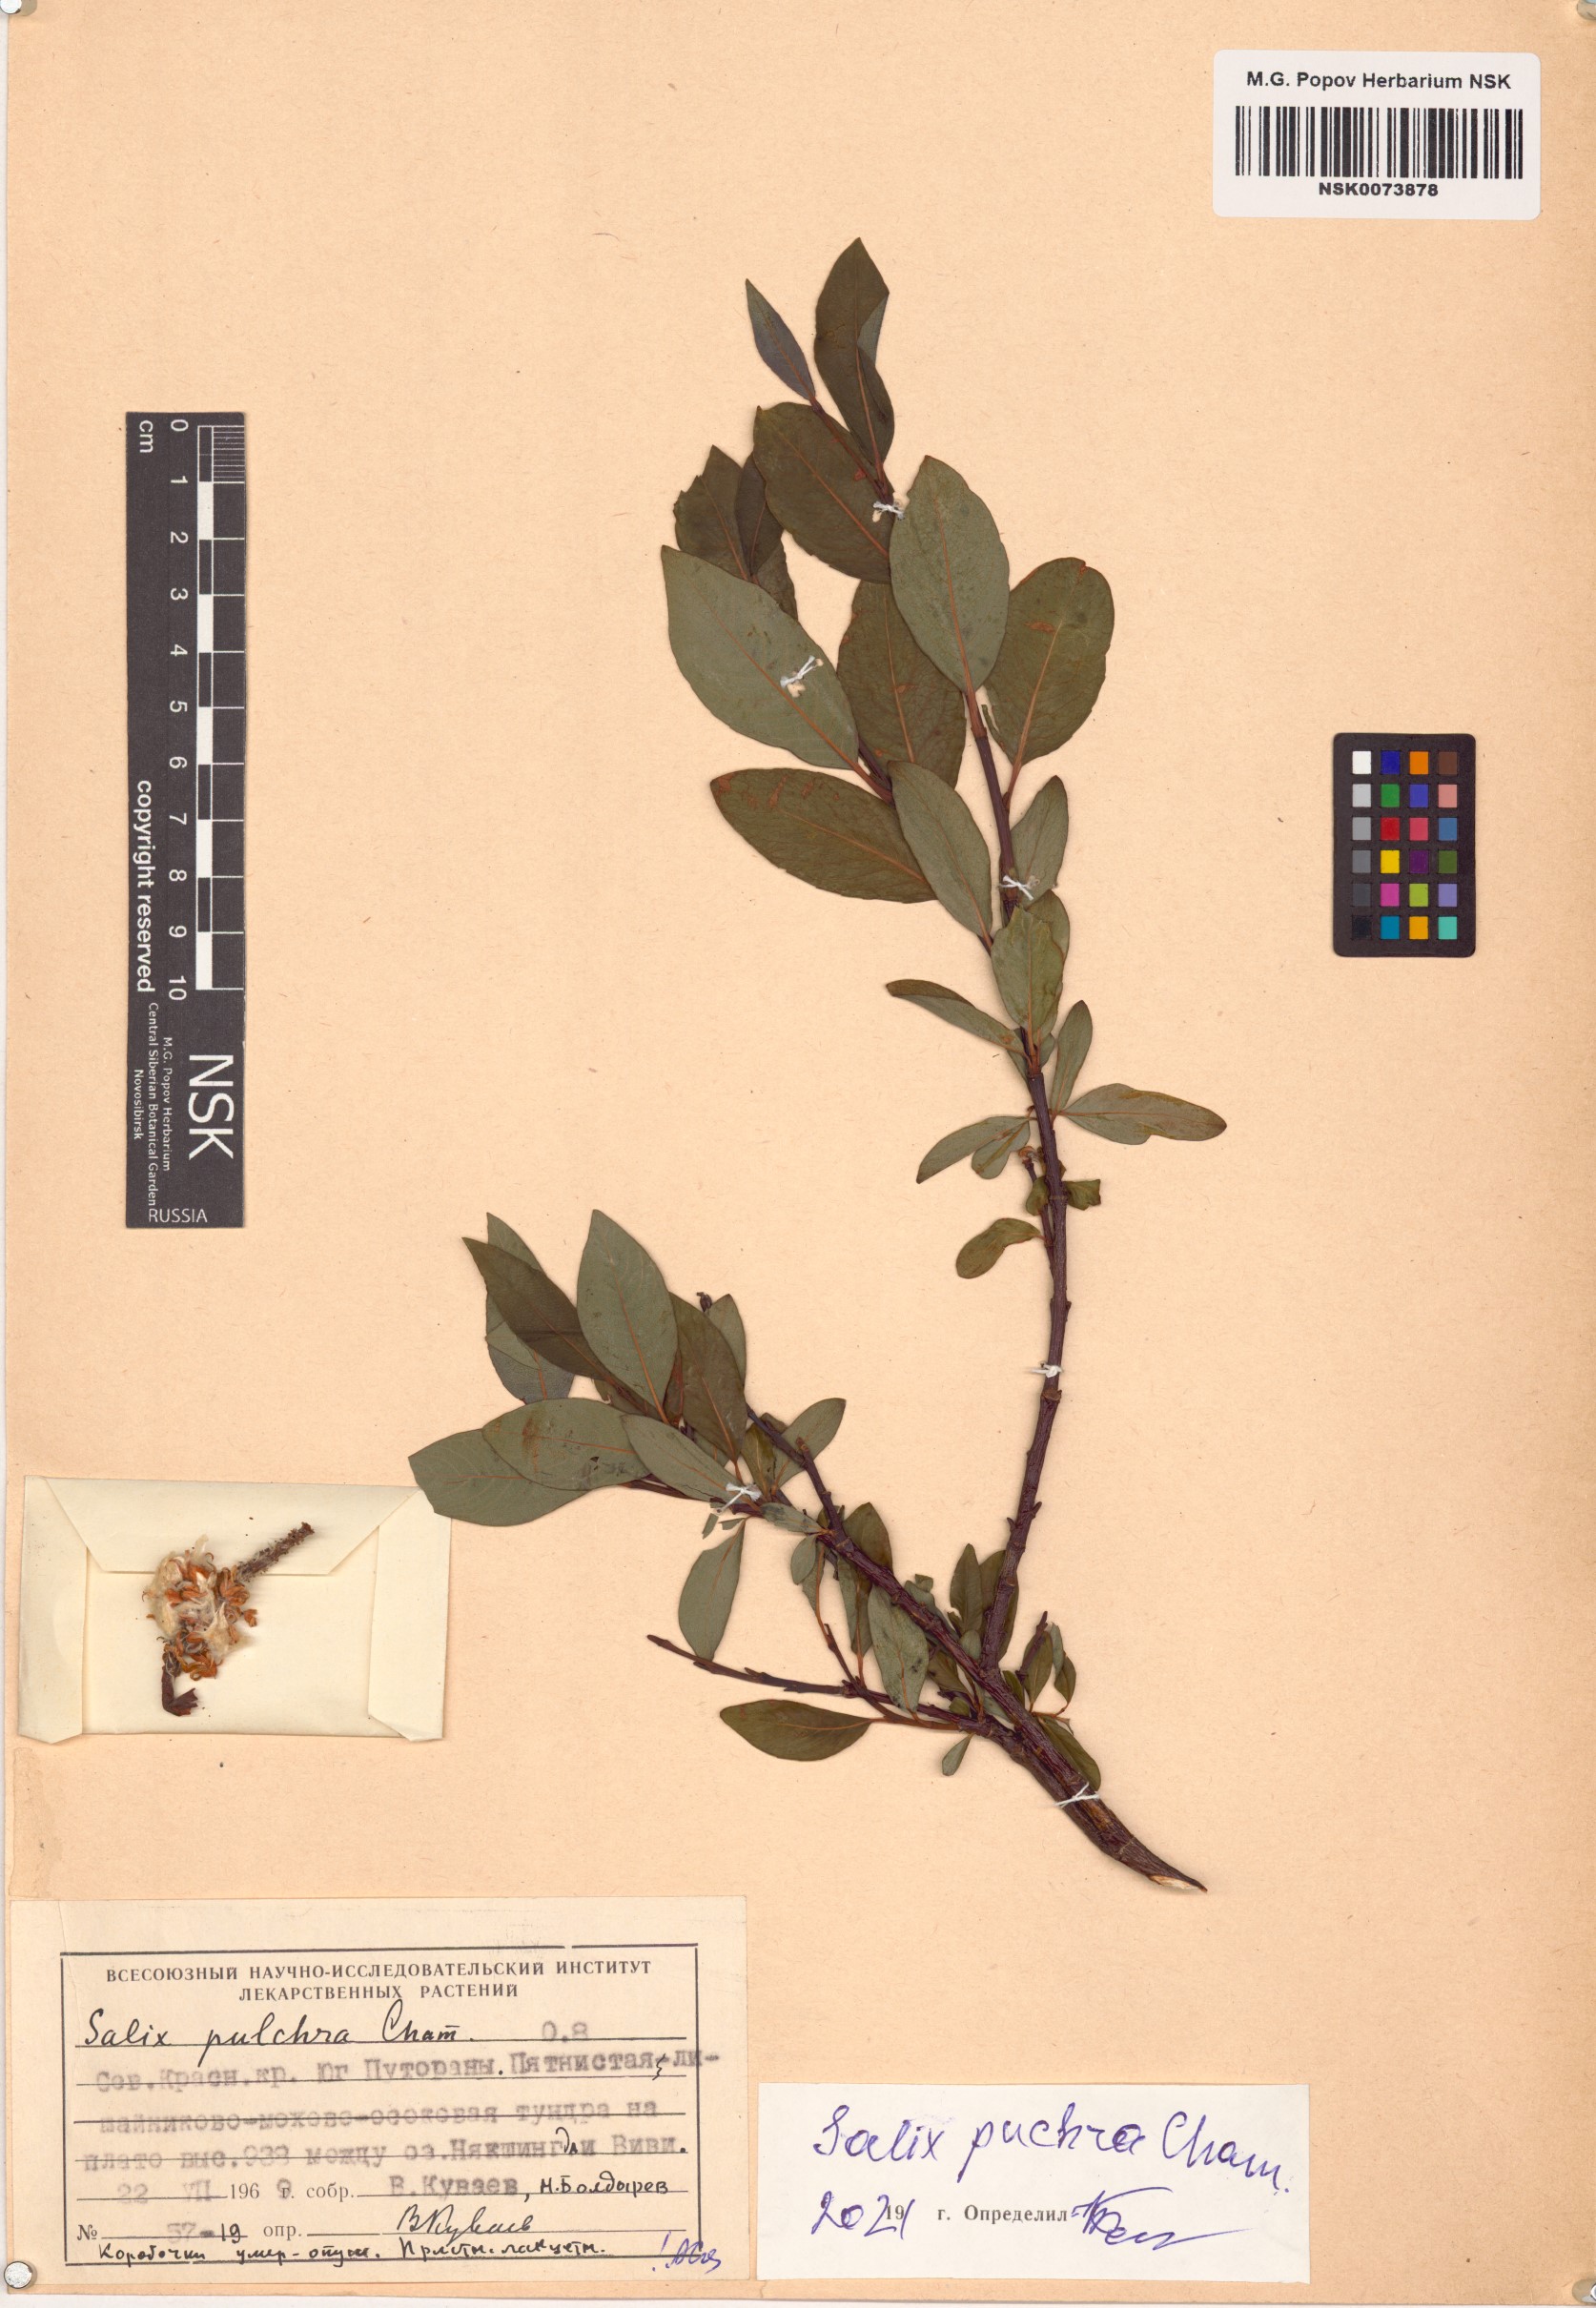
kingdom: Plantae
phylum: Tracheophyta
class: Magnoliopsida
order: Malpighiales
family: Salicaceae
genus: Salix
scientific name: Salix pulchra
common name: Diamond-leaved willow
